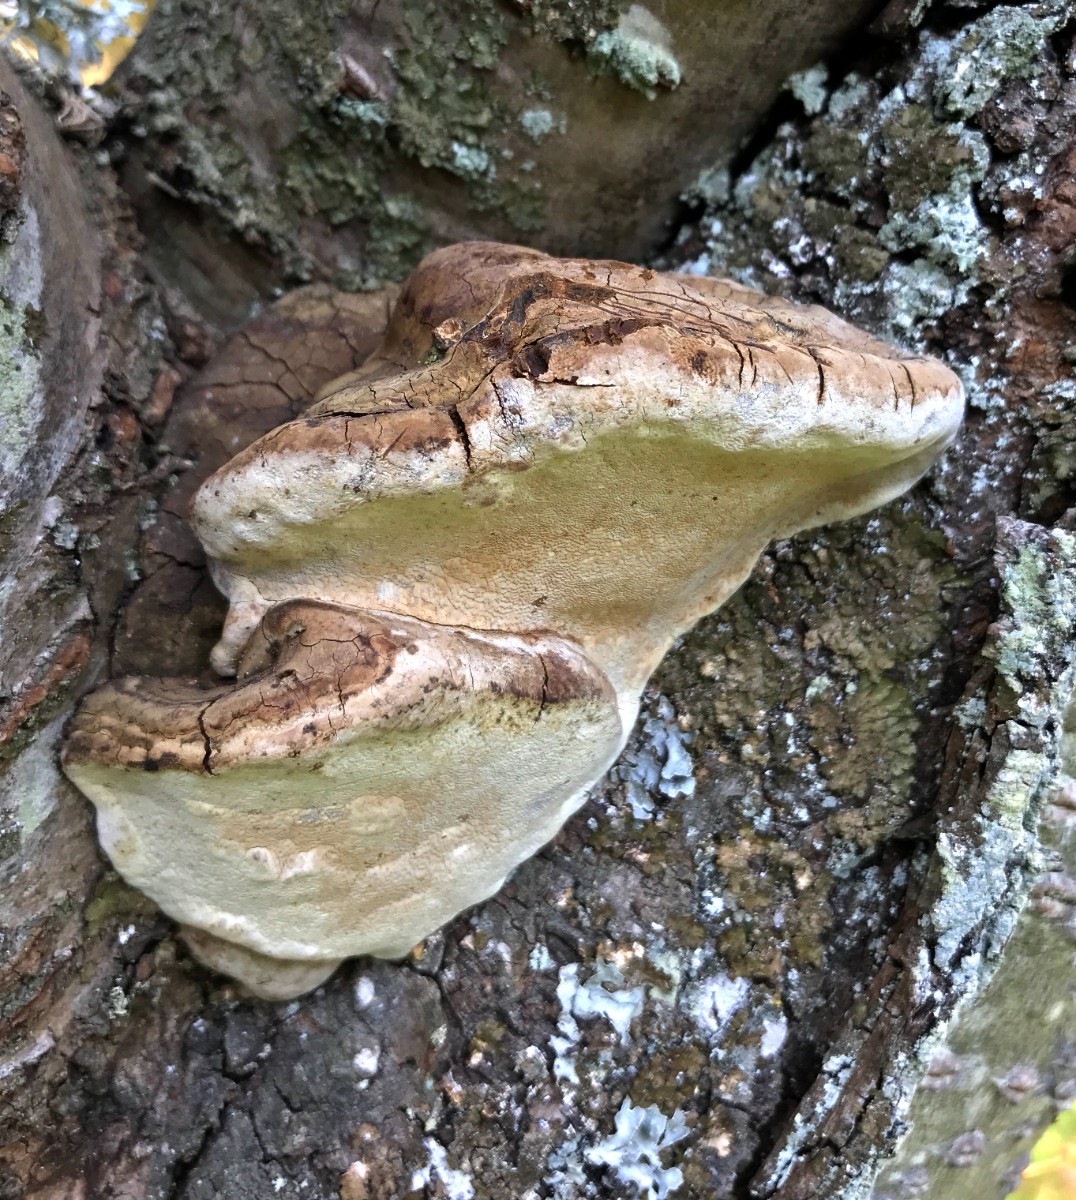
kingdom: Fungi
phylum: Basidiomycota
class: Agaricomycetes
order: Hymenochaetales
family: Hymenochaetaceae
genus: Phellinus
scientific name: Phellinus pomaceus
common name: blomme-ildporesvamp
